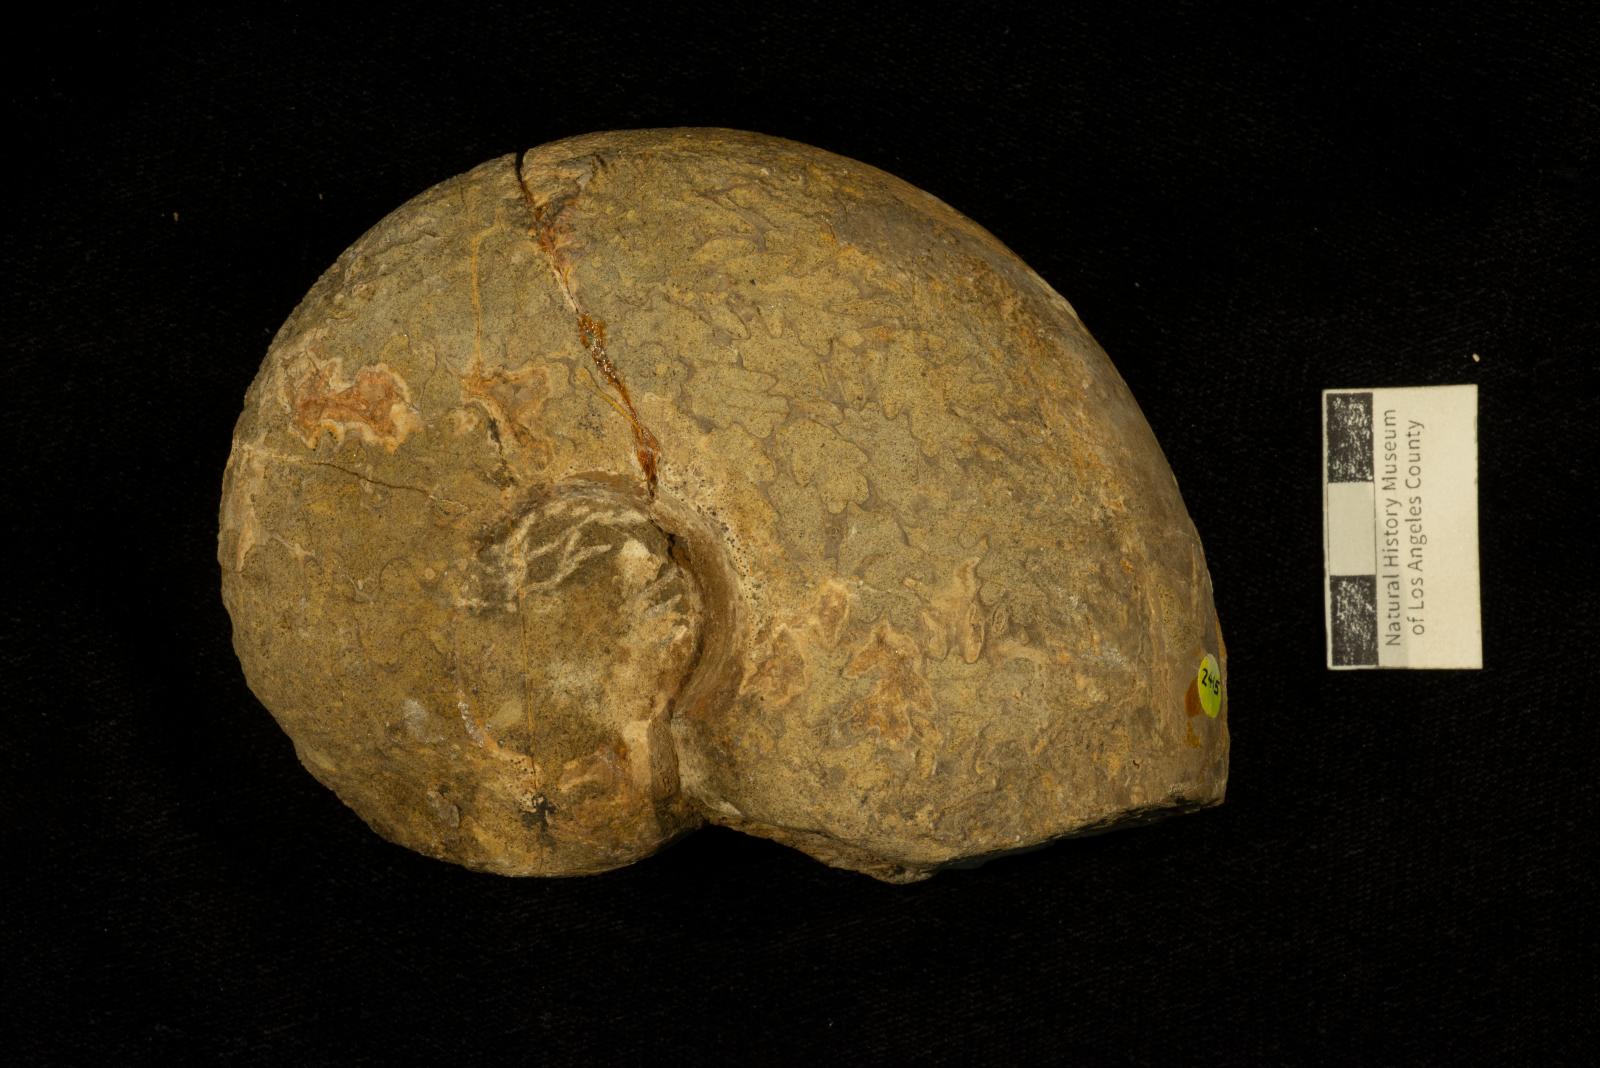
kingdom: Animalia
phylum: Mollusca
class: Cephalopoda
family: Tetragonitidae
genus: Pseudophyllites
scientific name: Pseudophyllites indra
